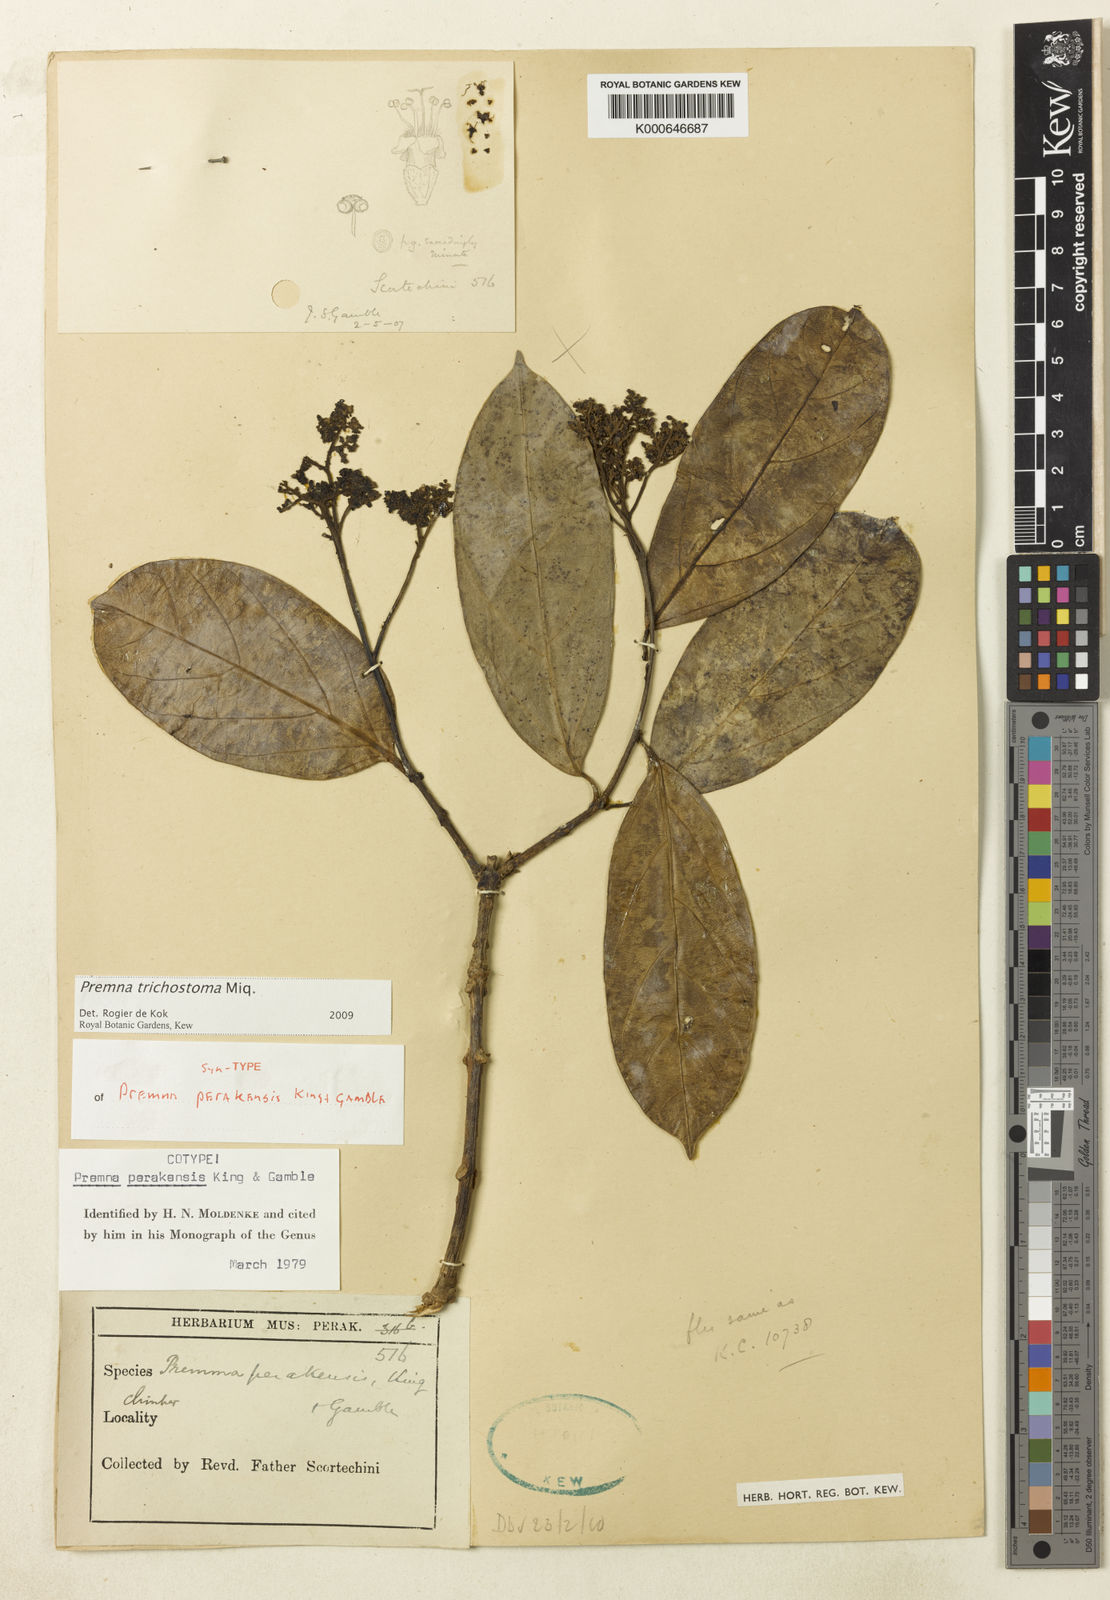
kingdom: Plantae
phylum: Tracheophyta
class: Magnoliopsida
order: Lamiales
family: Lamiaceae
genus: Premna
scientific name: Premna trichostoma
